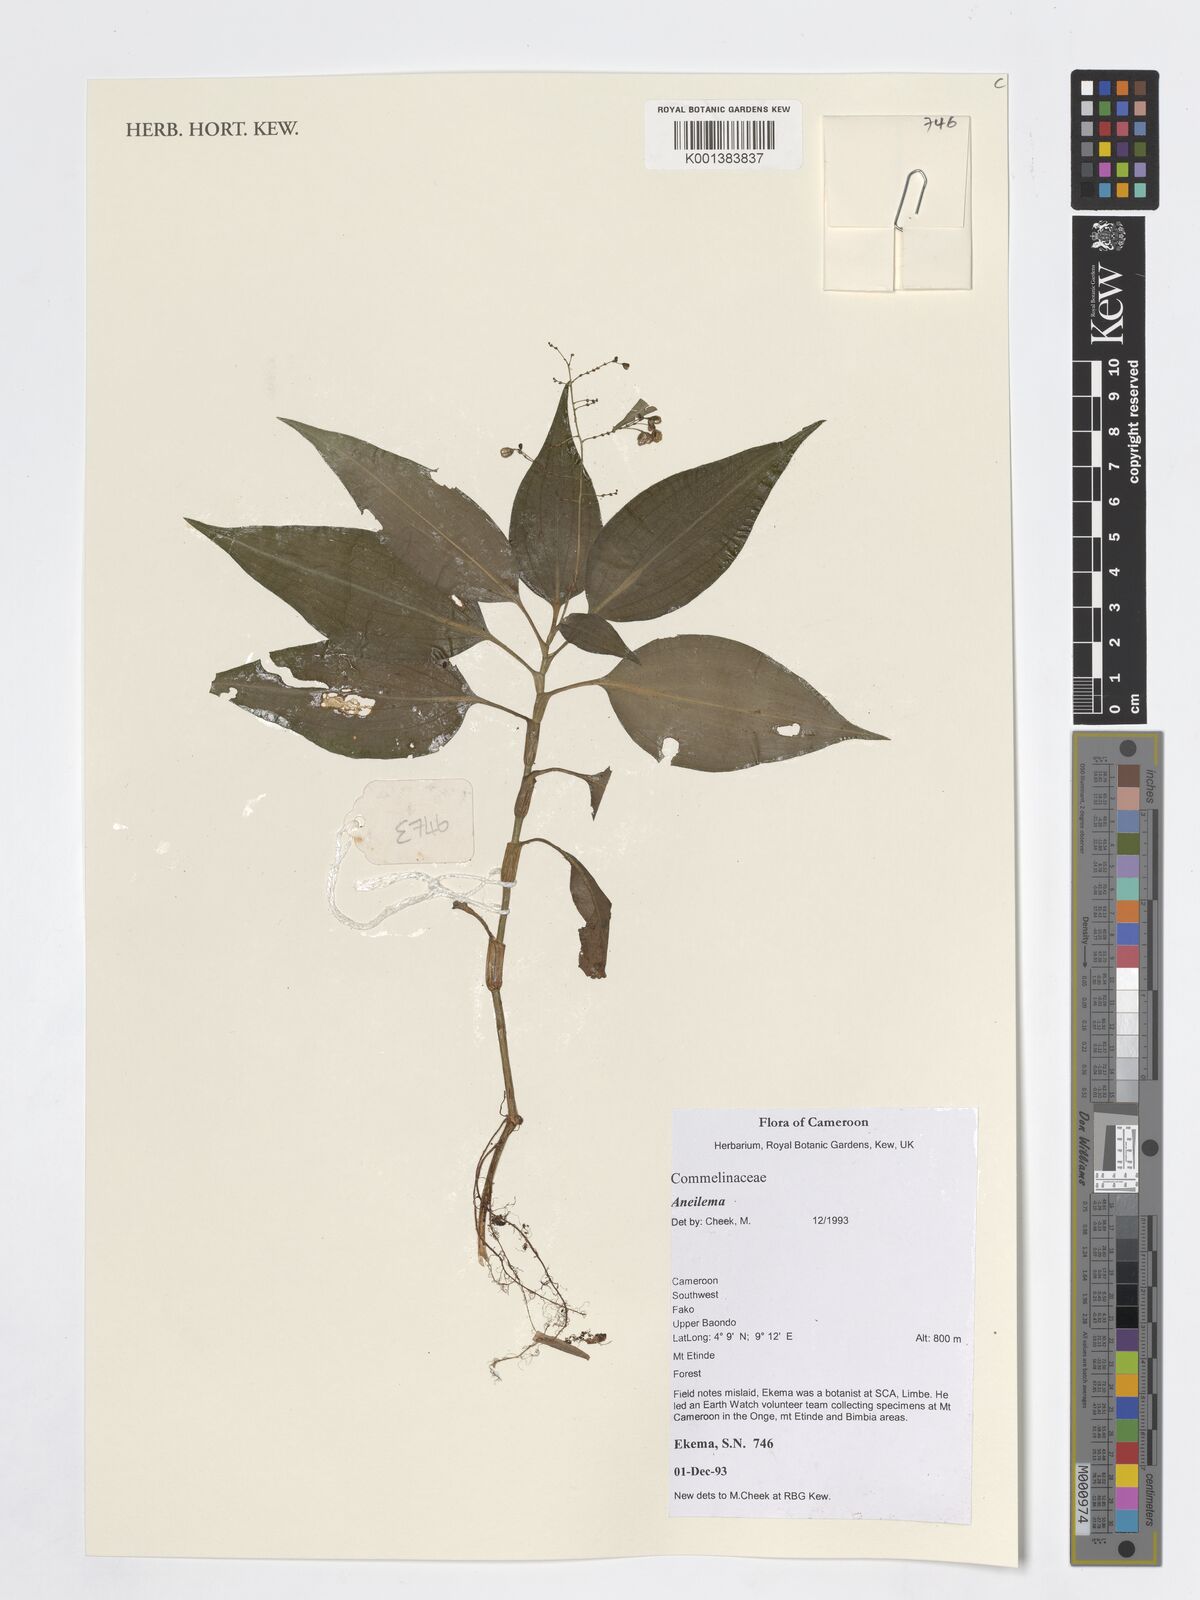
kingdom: Plantae
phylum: Tracheophyta
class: Liliopsida
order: Commelinales
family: Commelinaceae
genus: Aneilema
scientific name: Aneilema
